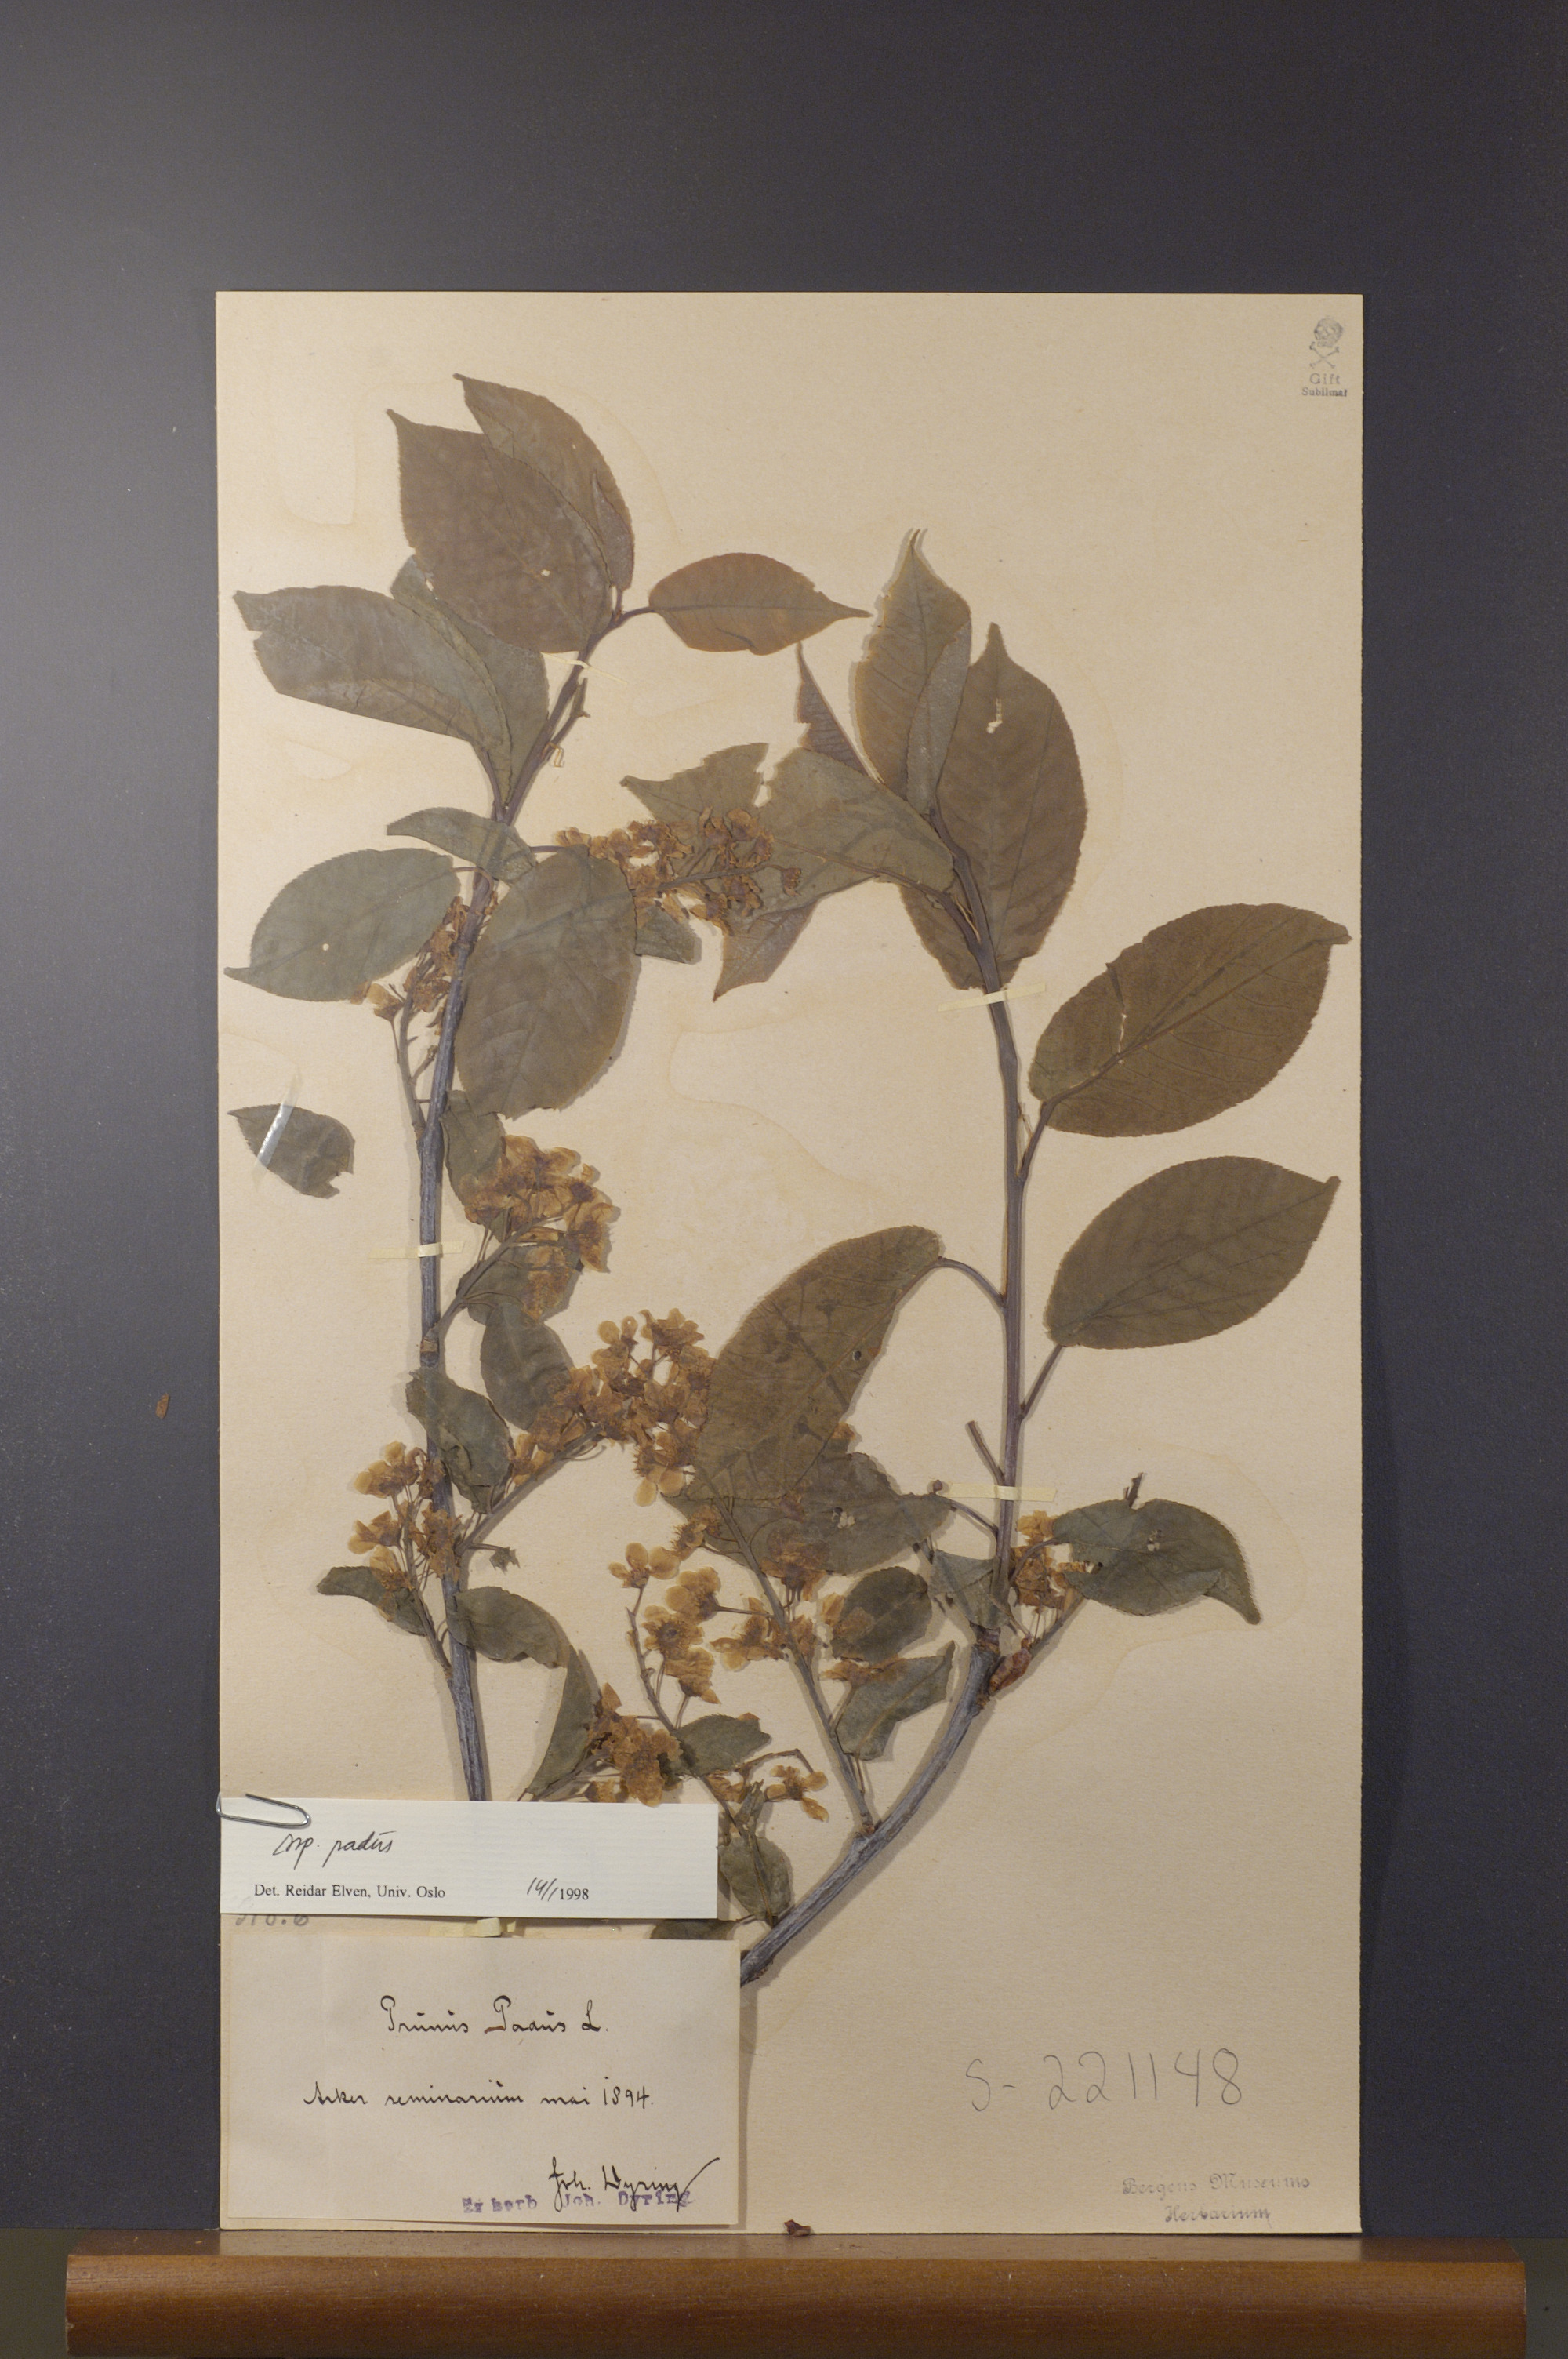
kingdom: Plantae
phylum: Tracheophyta
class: Magnoliopsida
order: Rosales
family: Rosaceae
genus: Prunus
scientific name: Prunus padus
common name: Bird cherry
